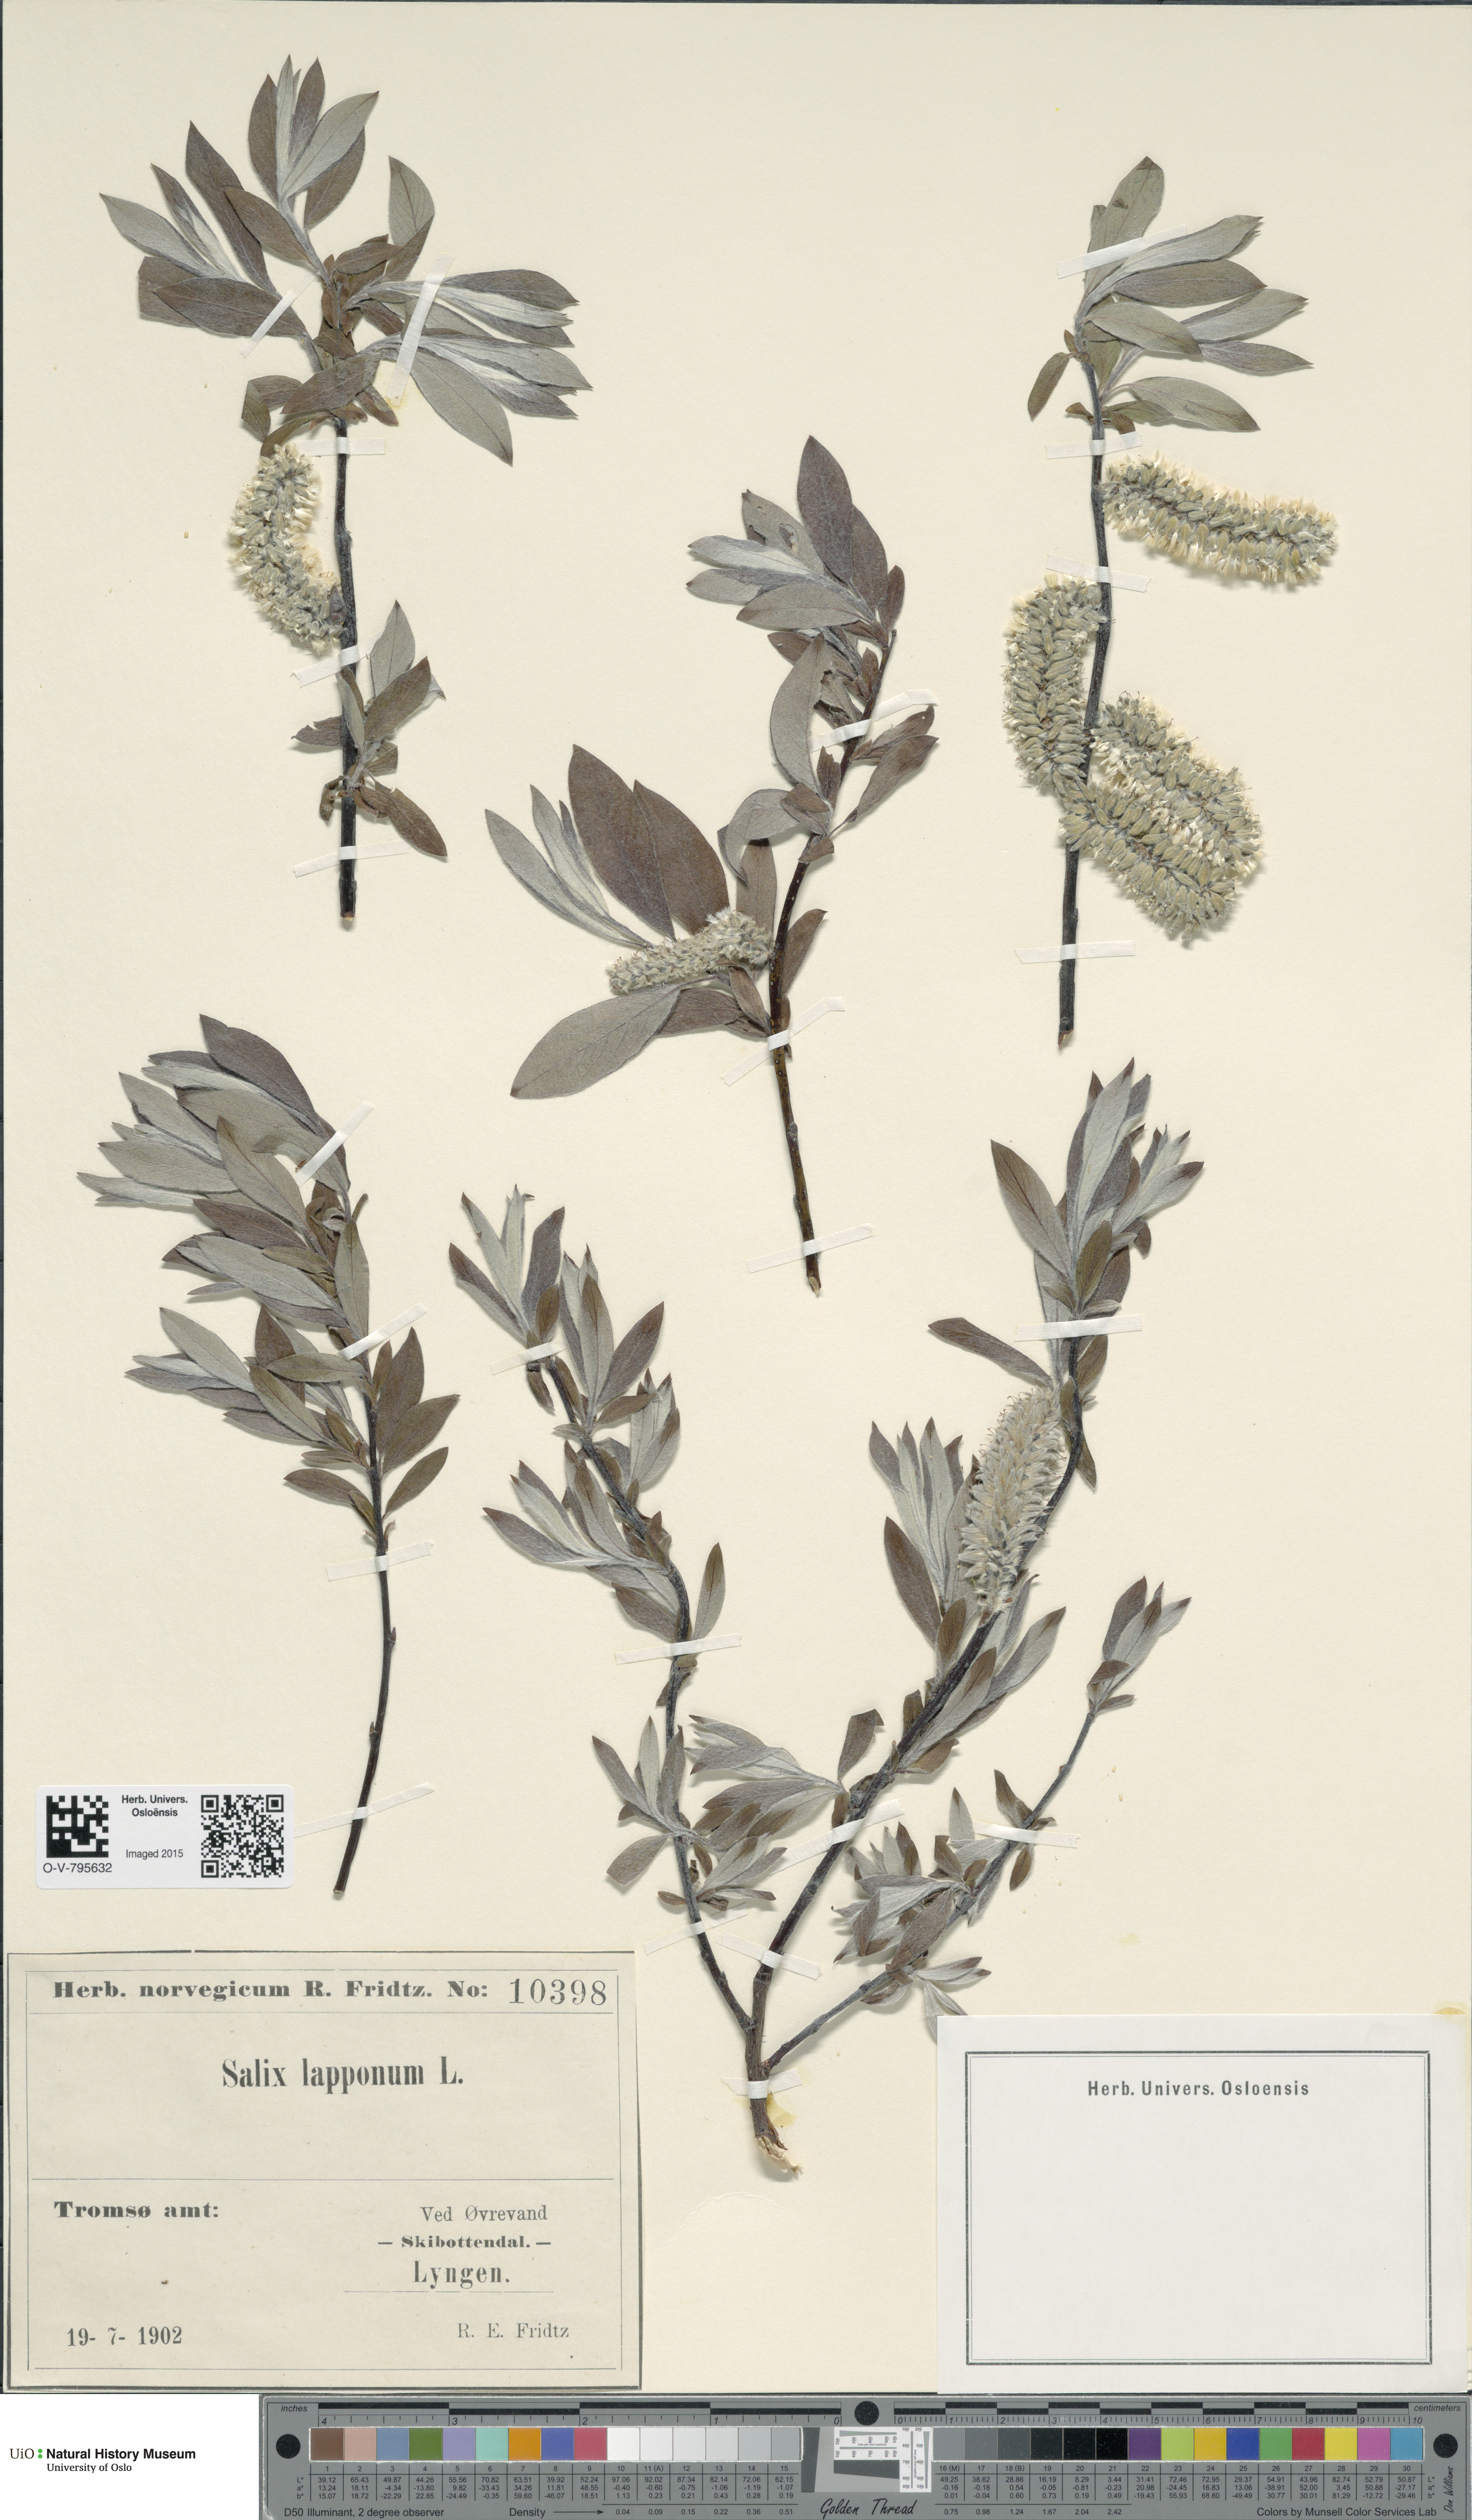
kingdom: Plantae
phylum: Tracheophyta
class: Magnoliopsida
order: Malpighiales
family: Salicaceae
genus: Salix
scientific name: Salix lapponum
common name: Downy willow
